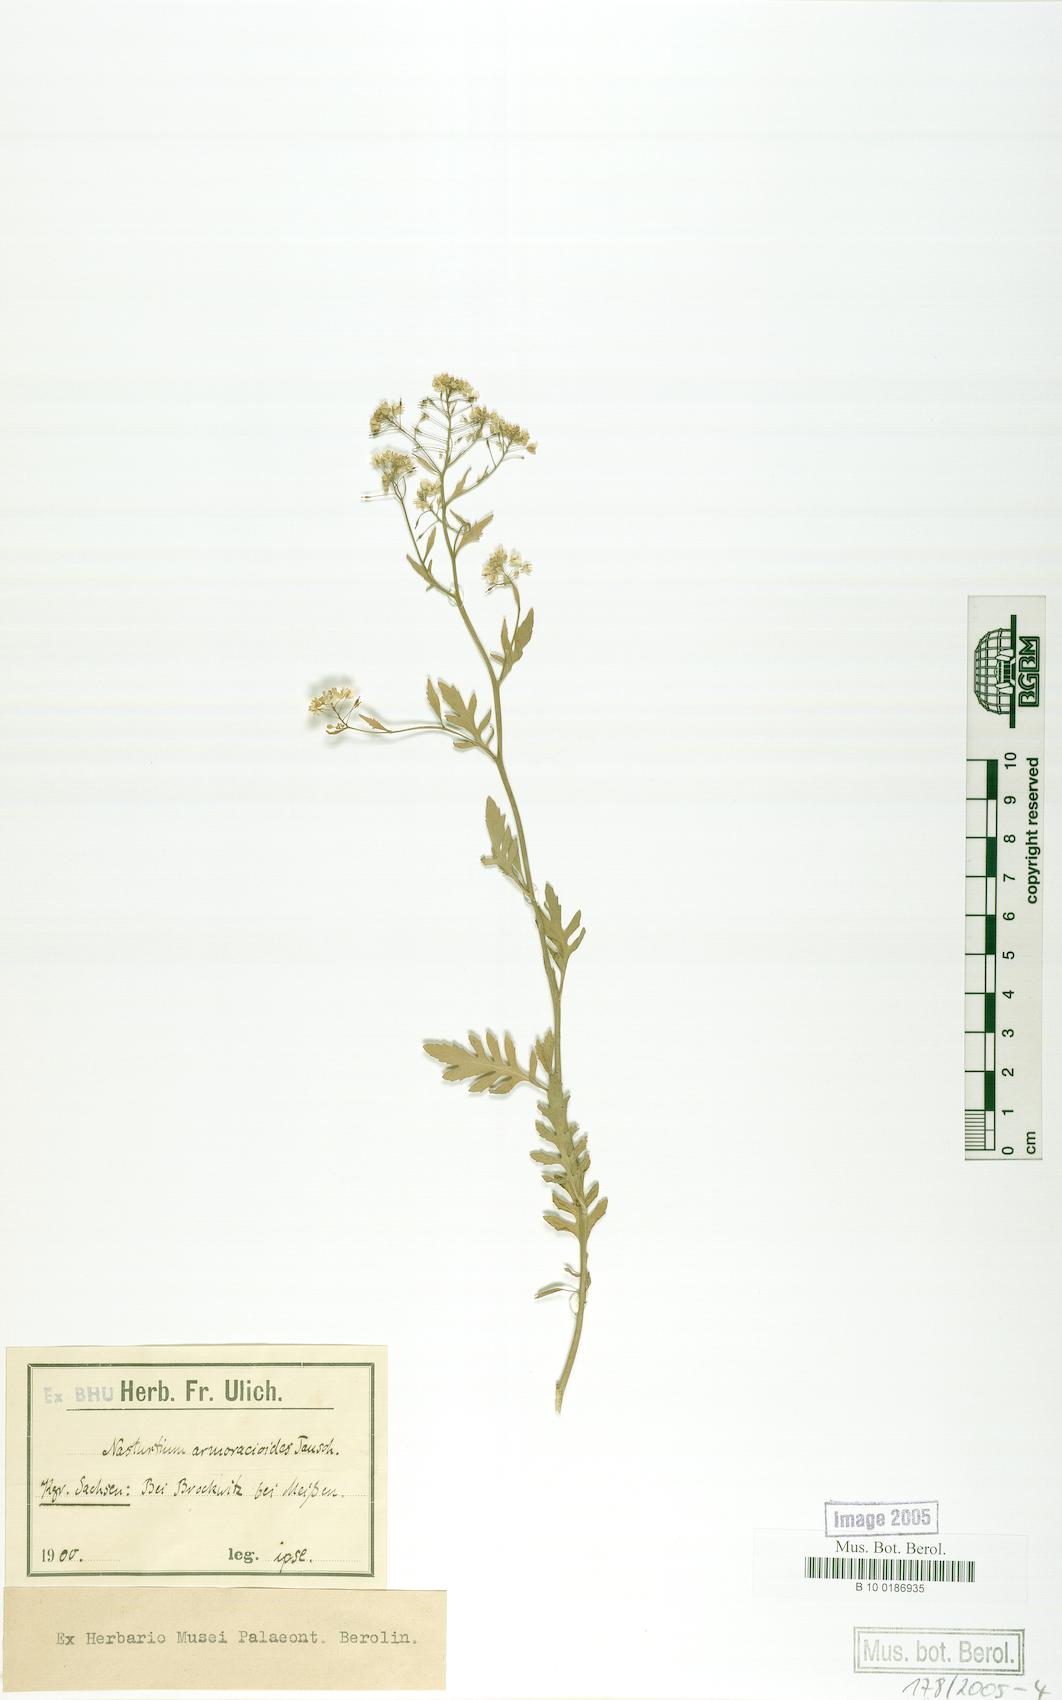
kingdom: Plantae
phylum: Tracheophyta
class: Magnoliopsida
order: Brassicales
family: Brassicaceae
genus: Rorippa
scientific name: Rorippa anceps
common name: Rorippa
